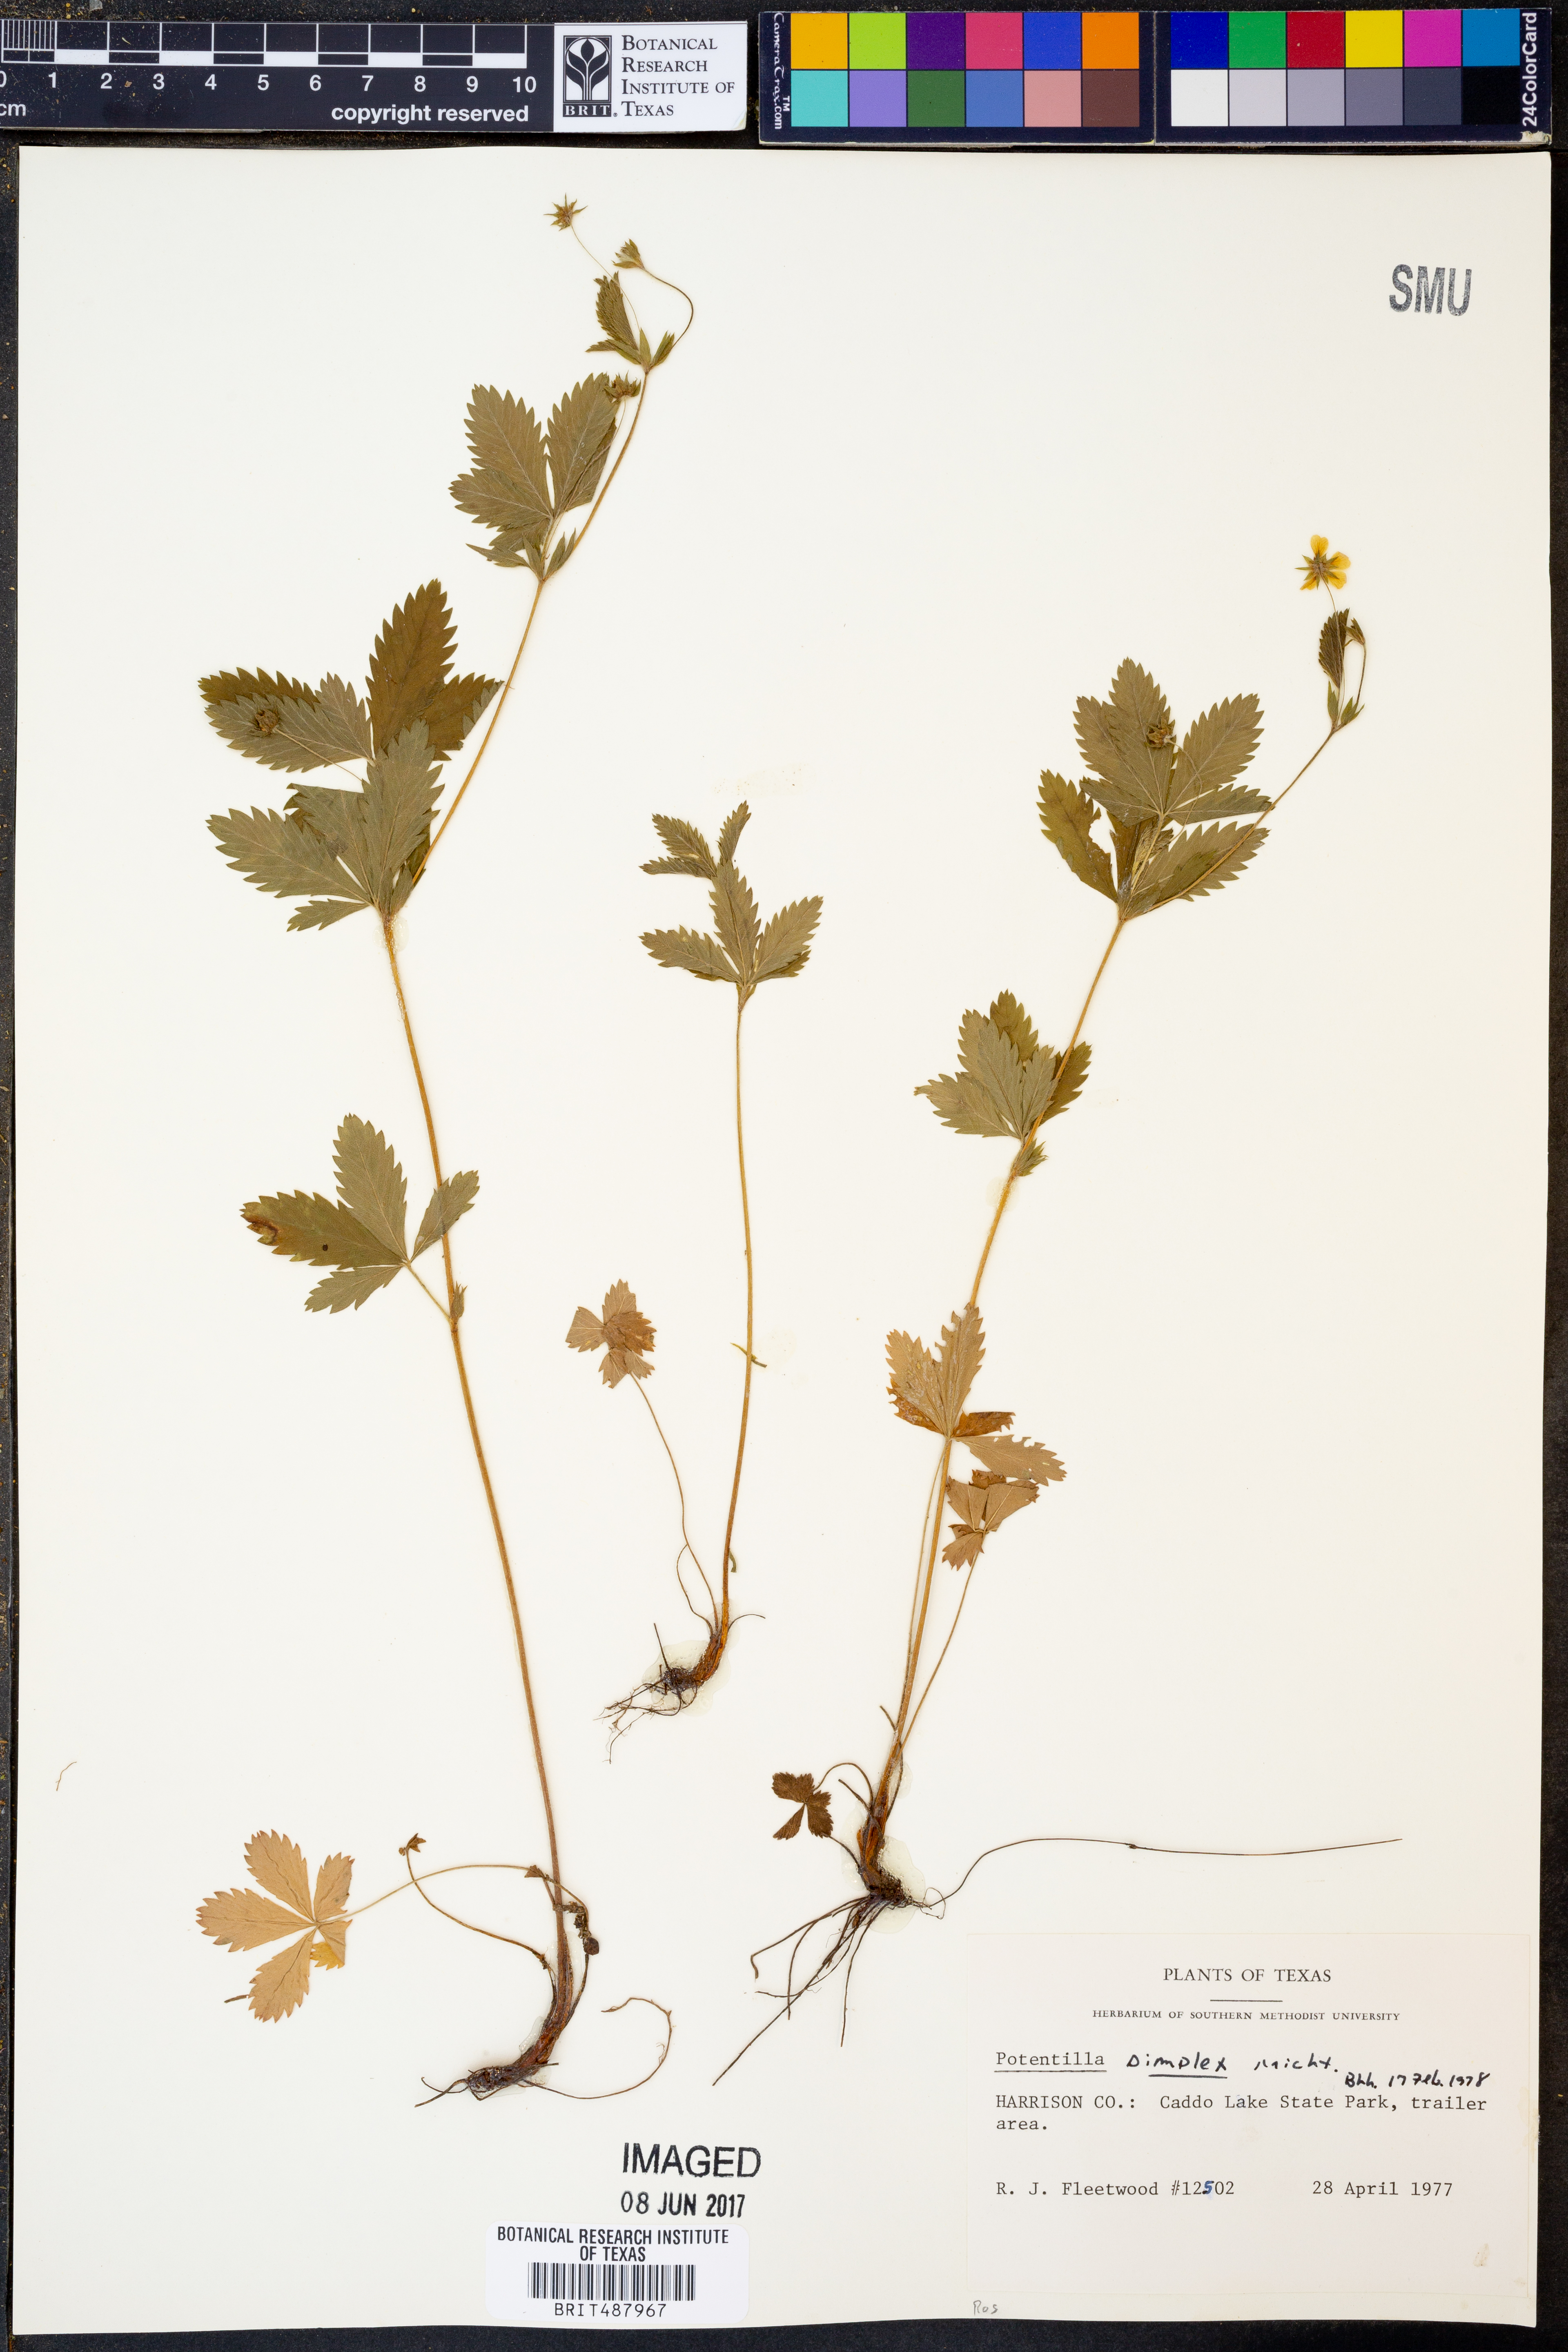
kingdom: Plantae
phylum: Tracheophyta
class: Magnoliopsida
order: Rosales
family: Rosaceae
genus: Potentilla
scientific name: Potentilla simplex
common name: Old field cinquefoil
